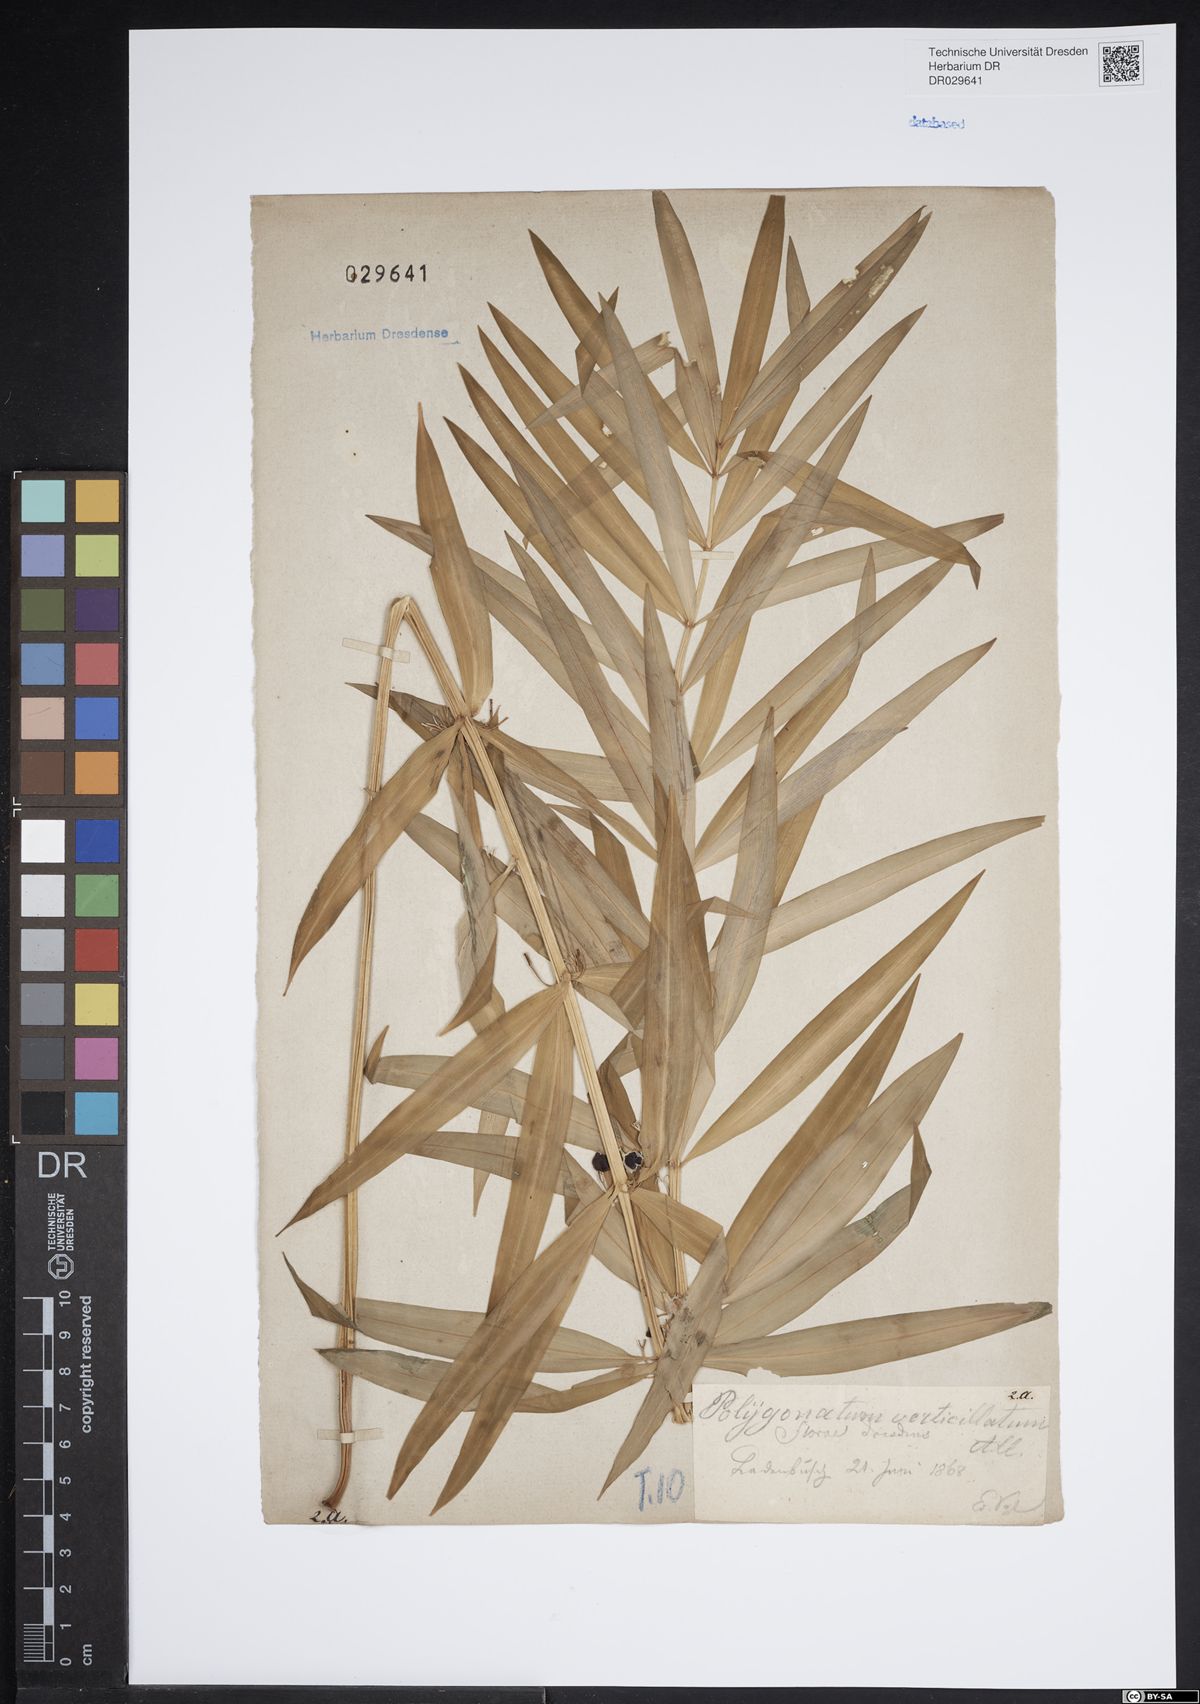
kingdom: Plantae
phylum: Tracheophyta
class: Liliopsida
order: Asparagales
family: Asparagaceae
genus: Polygonatum
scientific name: Polygonatum verticillatum
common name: Whorled solomon's-seal
